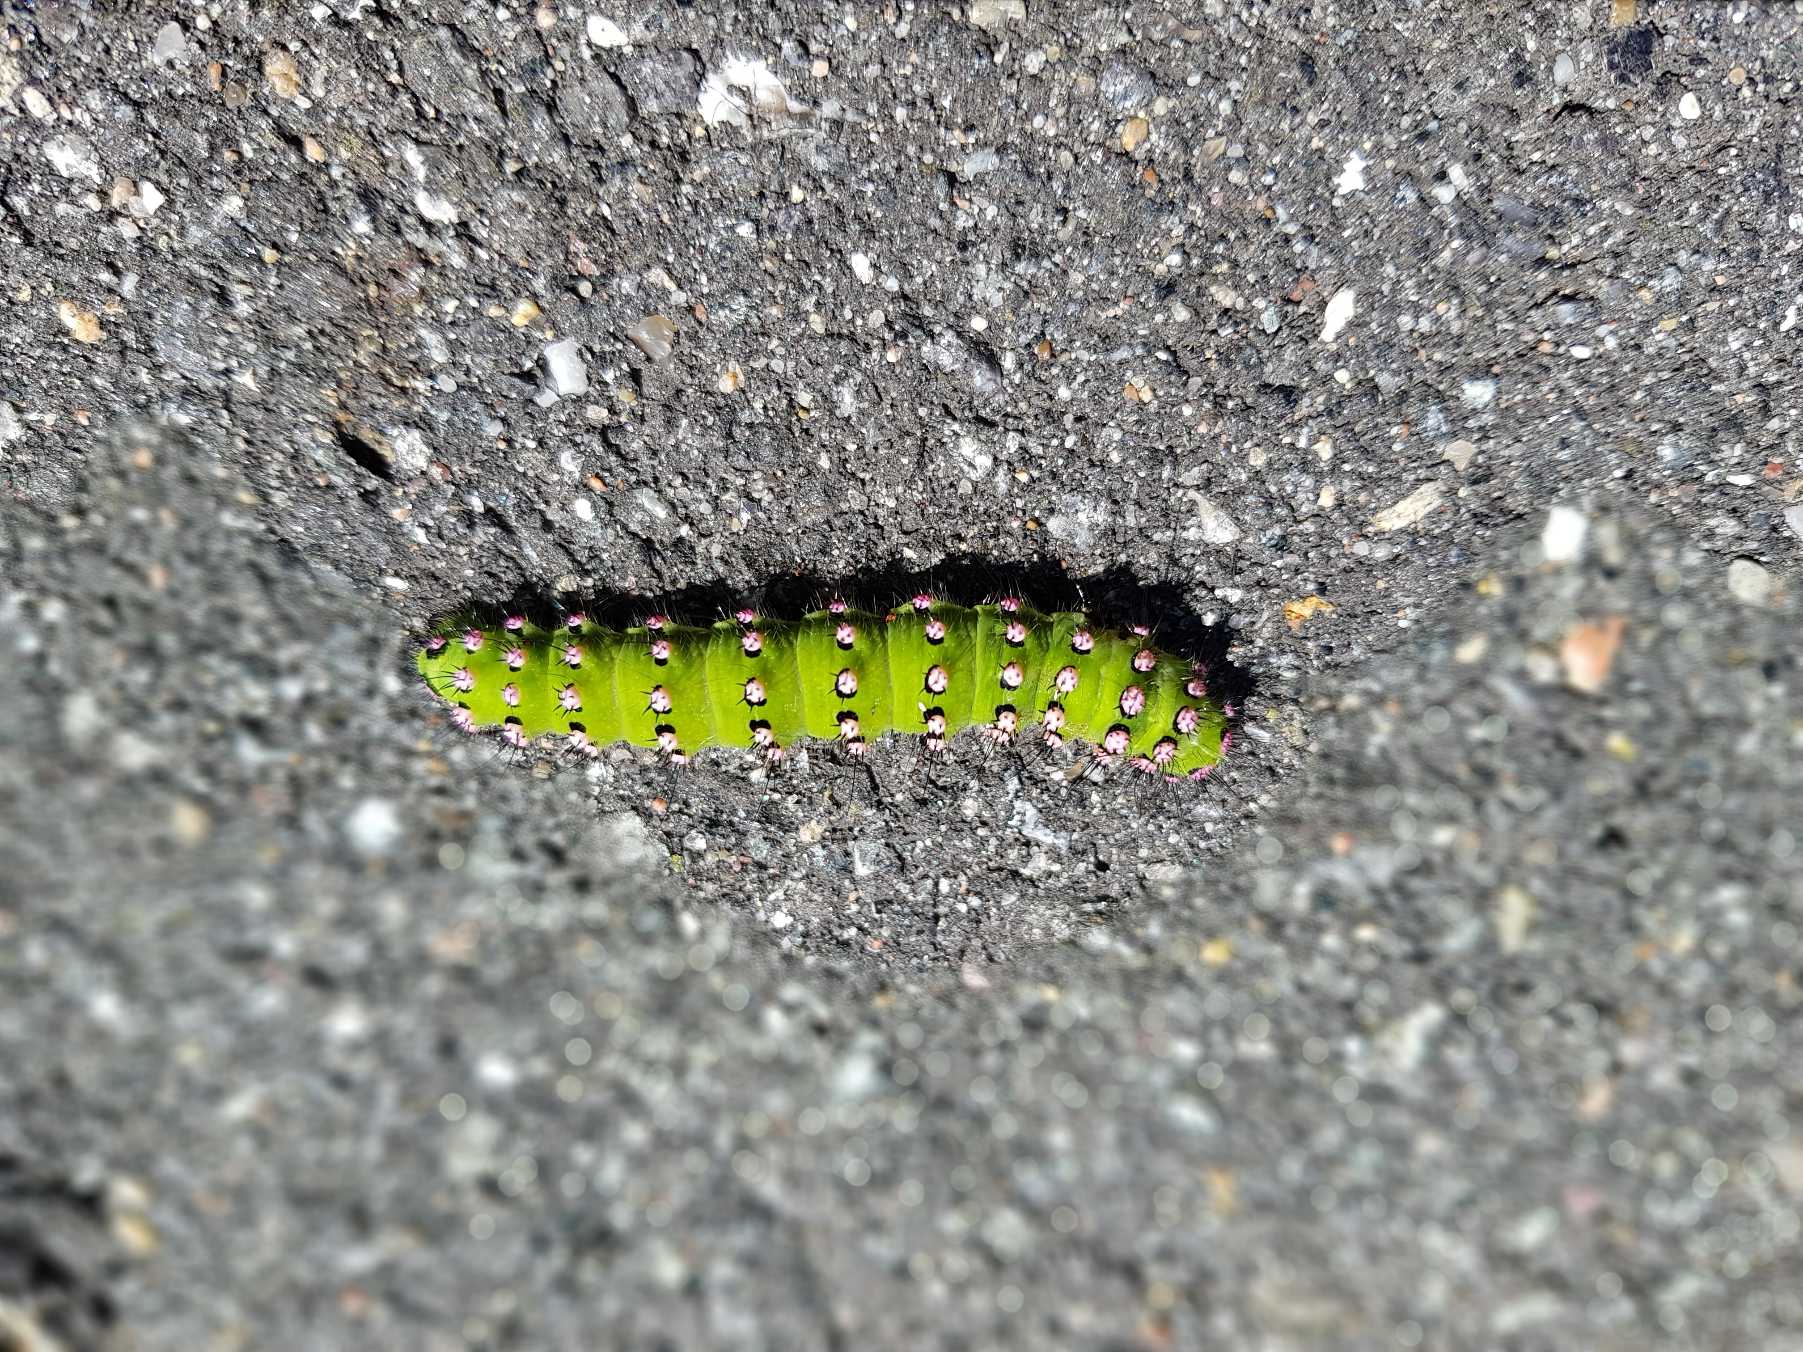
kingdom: Animalia
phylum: Arthropoda
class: Insecta
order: Lepidoptera
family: Saturniidae
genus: Saturnia
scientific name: Saturnia pavonia
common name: Lille natpåfugleøje
